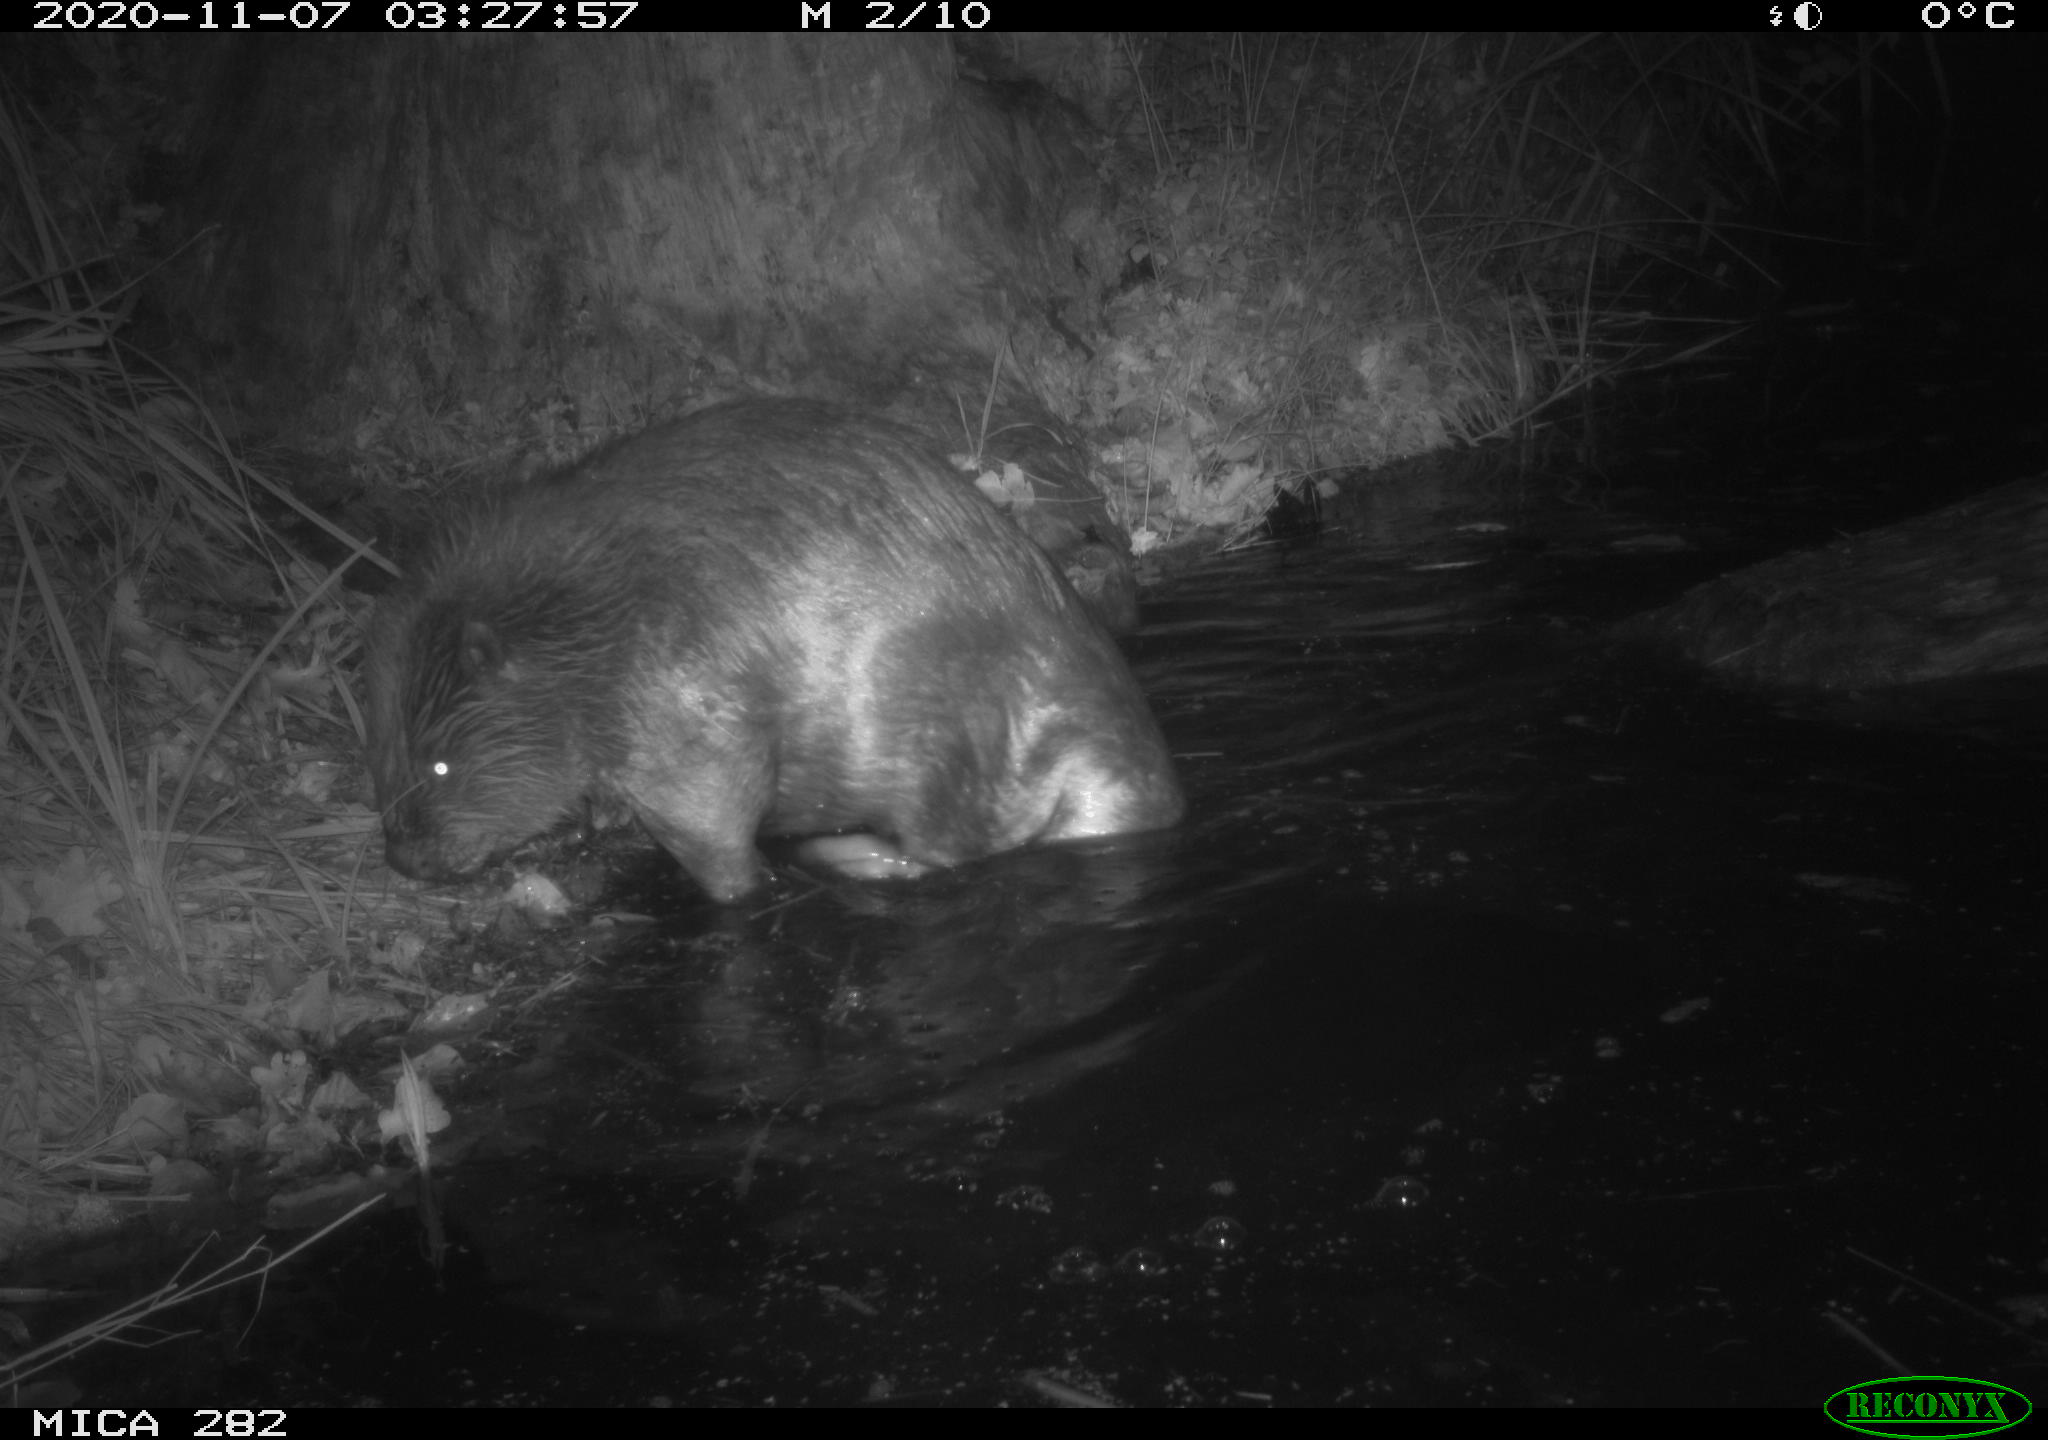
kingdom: Animalia
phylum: Chordata
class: Mammalia
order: Rodentia
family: Castoridae
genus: Castor
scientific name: Castor fiber
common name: Eurasian beaver
